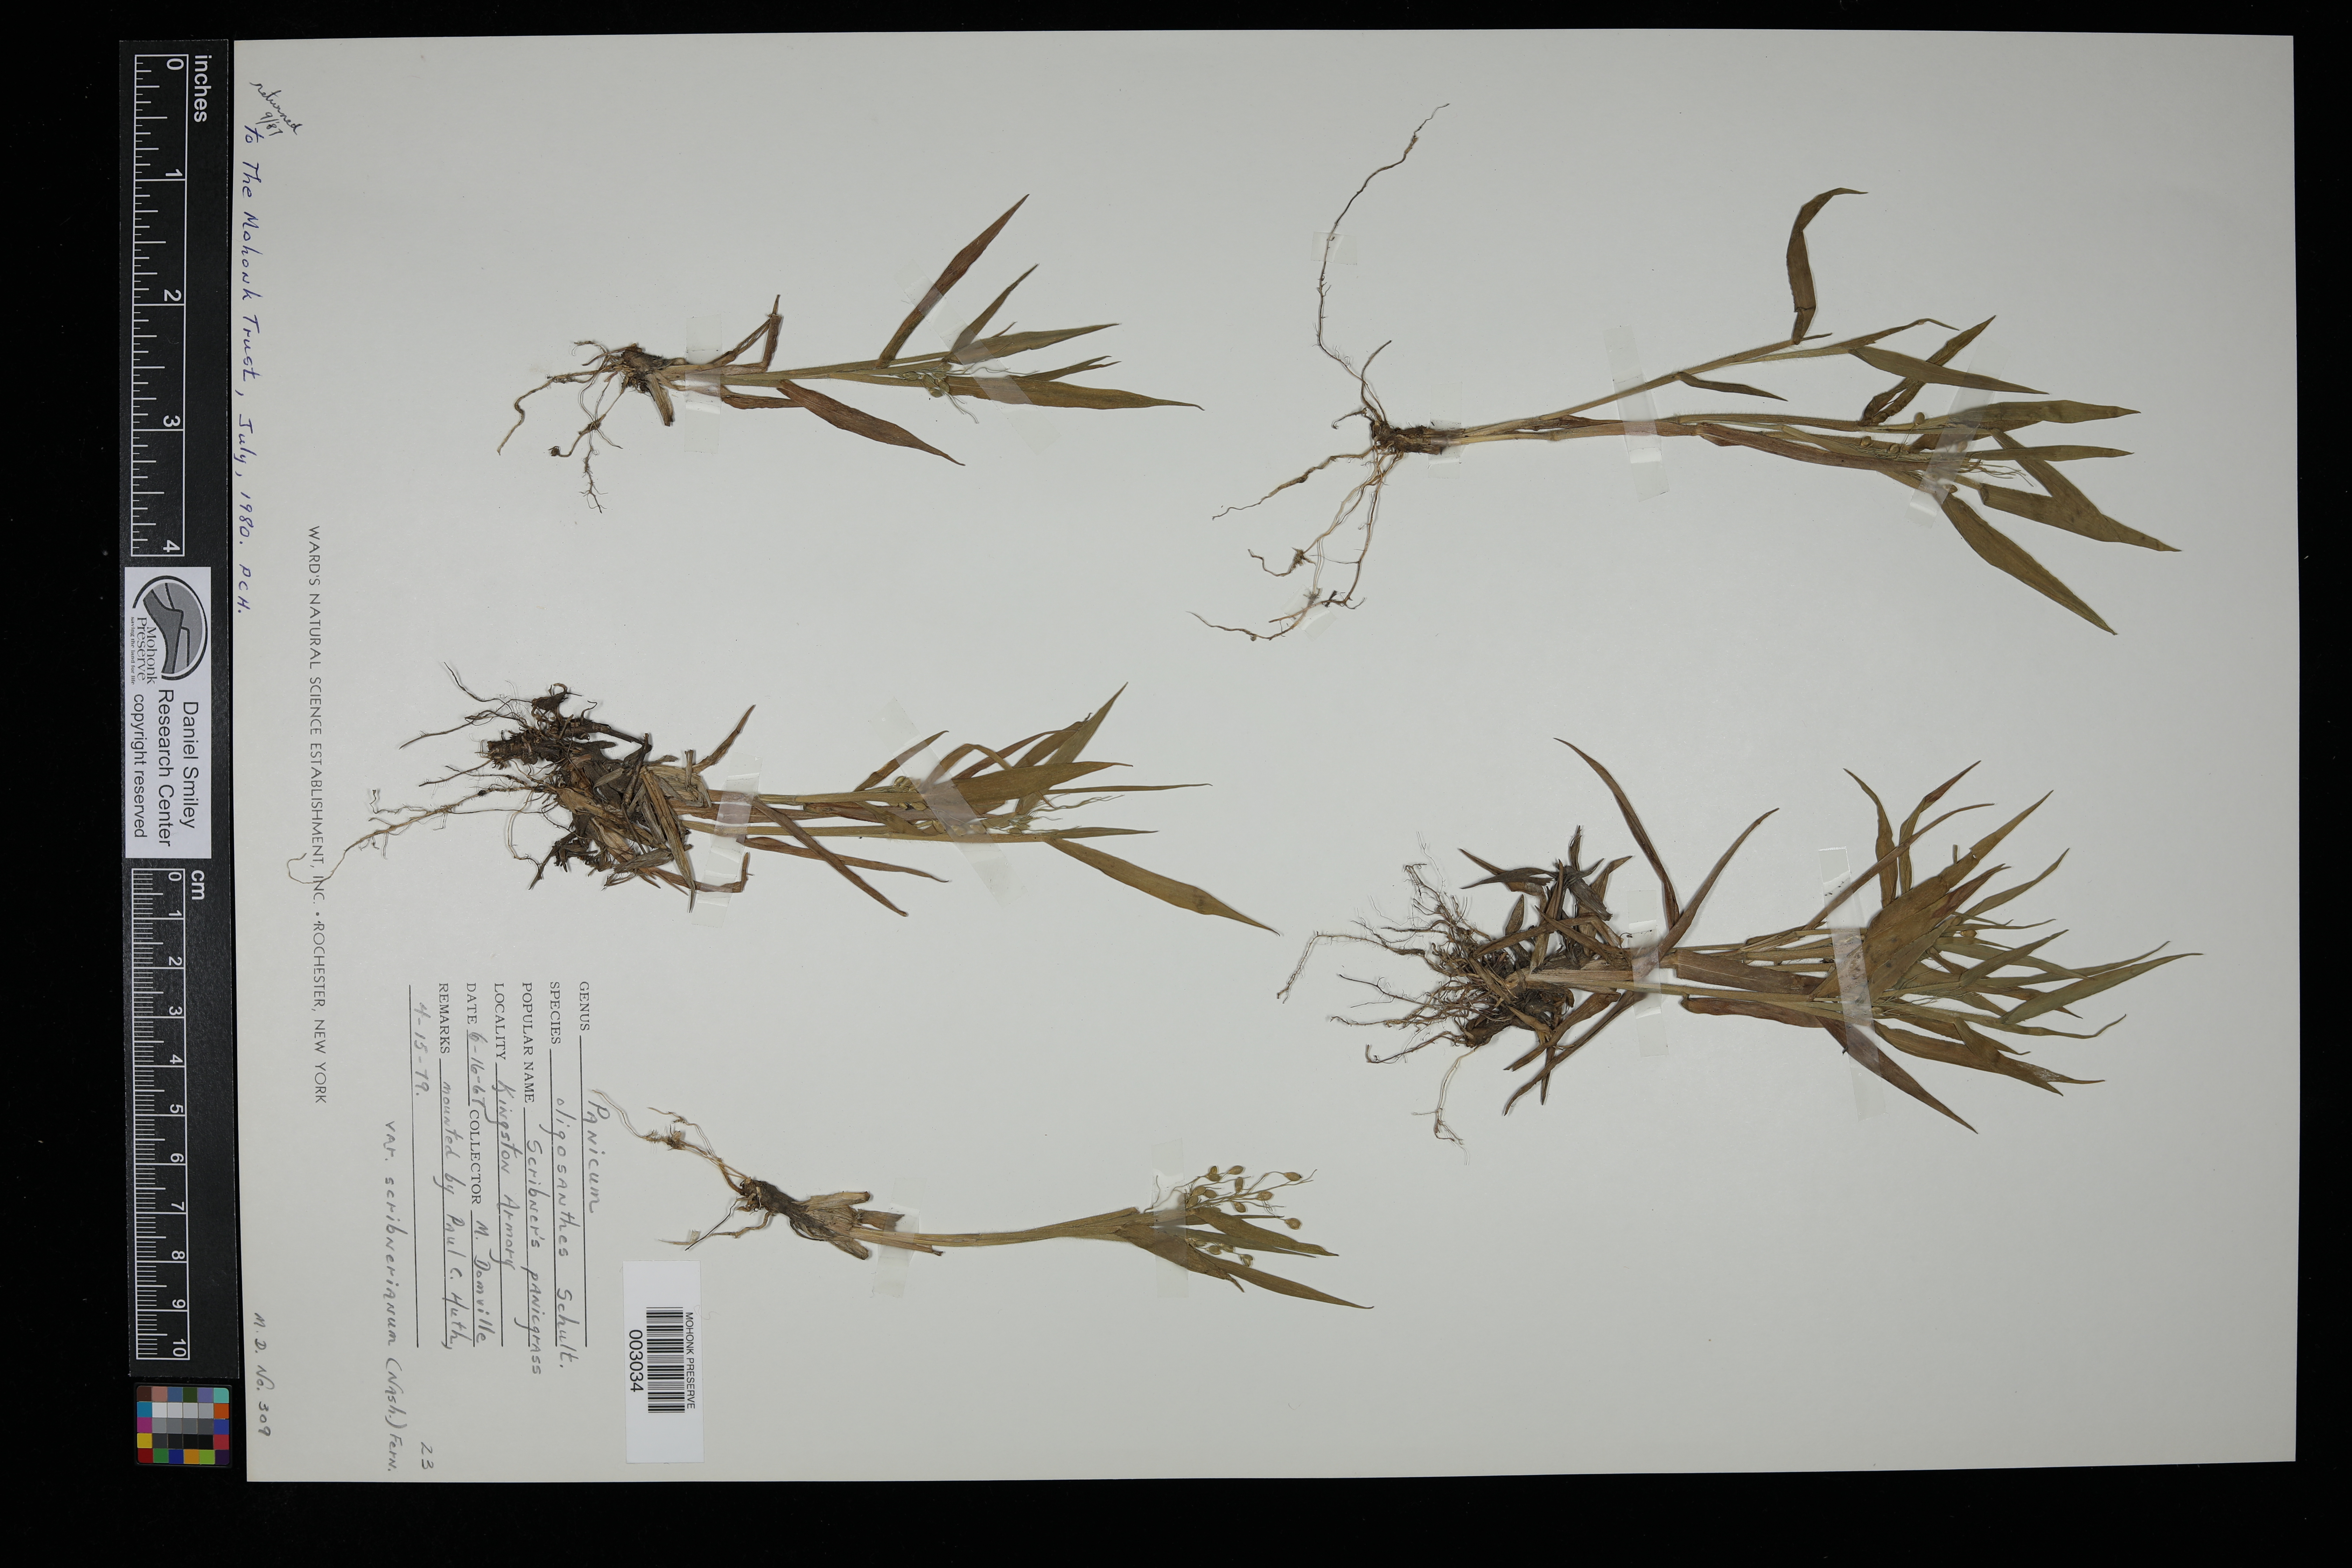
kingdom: Plantae
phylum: Tracheophyta
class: Liliopsida
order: Poales
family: Poaceae
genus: Dichanthelium
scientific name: Dichanthelium oligosanthes
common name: Few-anther obscuregrass
